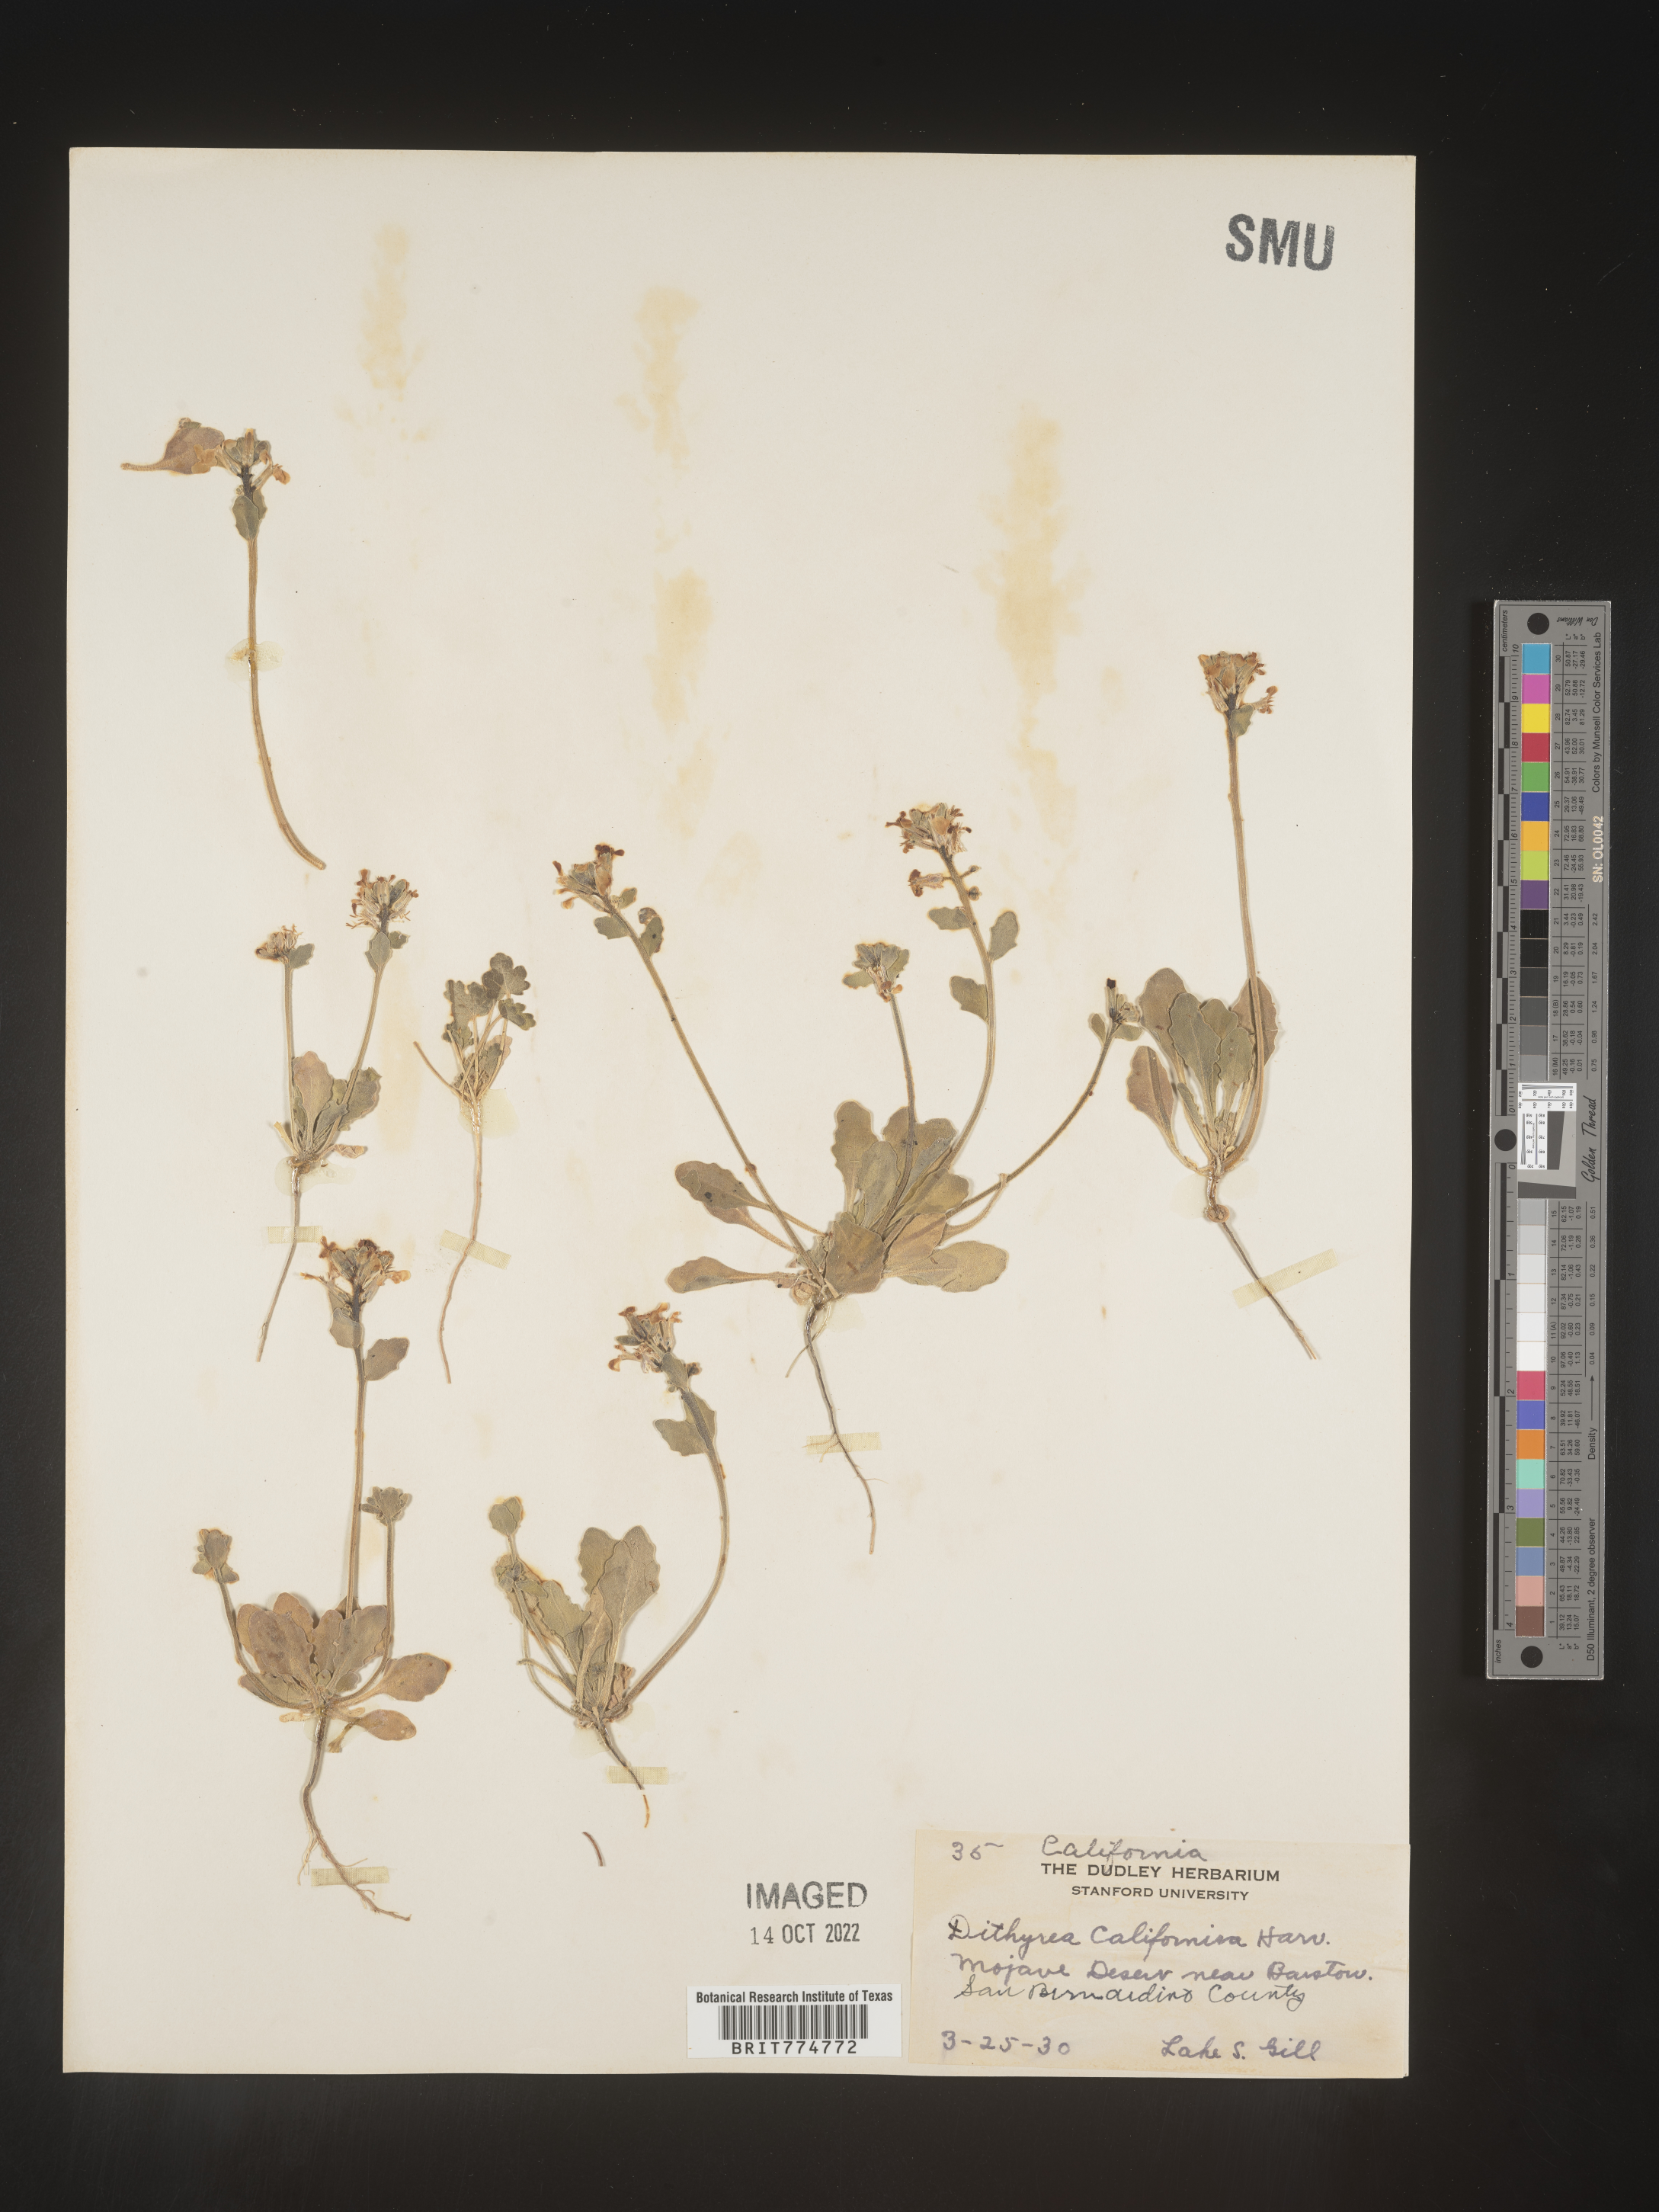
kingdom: Plantae
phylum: Tracheophyta
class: Magnoliopsida
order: Brassicales
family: Brassicaceae
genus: Dithyrea
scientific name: Dithyrea californica
